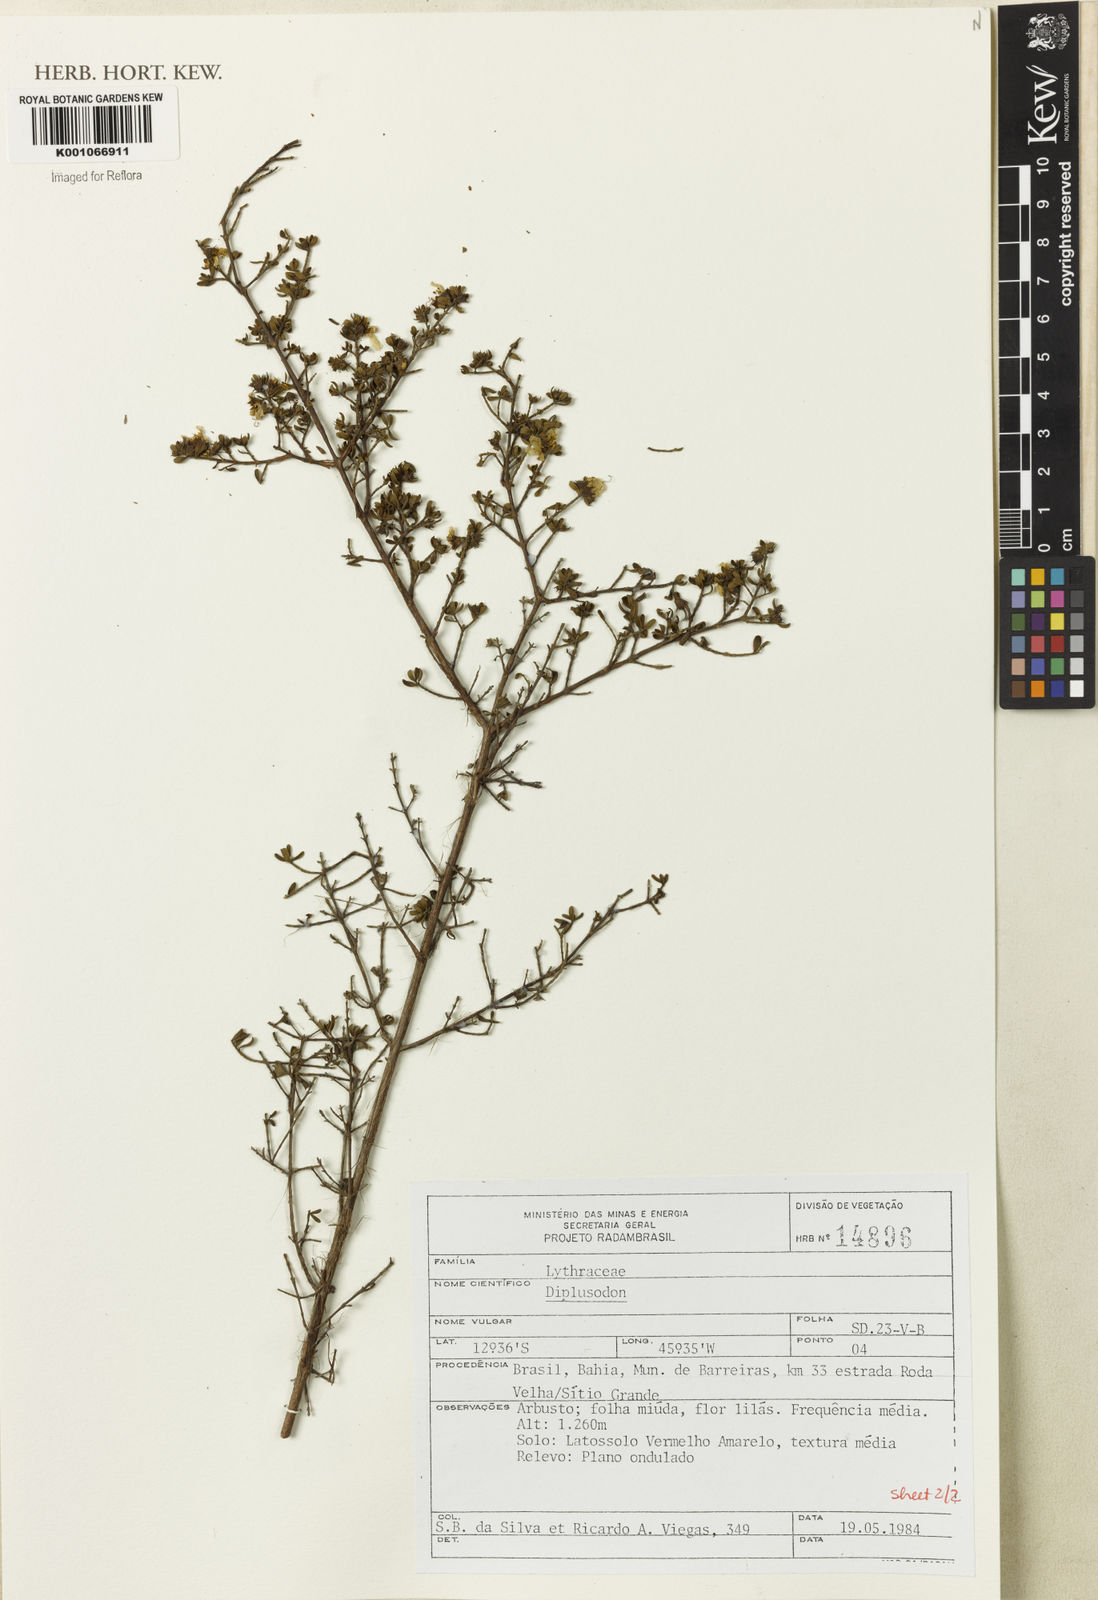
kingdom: Plantae
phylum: Tracheophyta
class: Magnoliopsida
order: Myrtales
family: Lythraceae
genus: Diplusodon
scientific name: Diplusodon thymifolius
